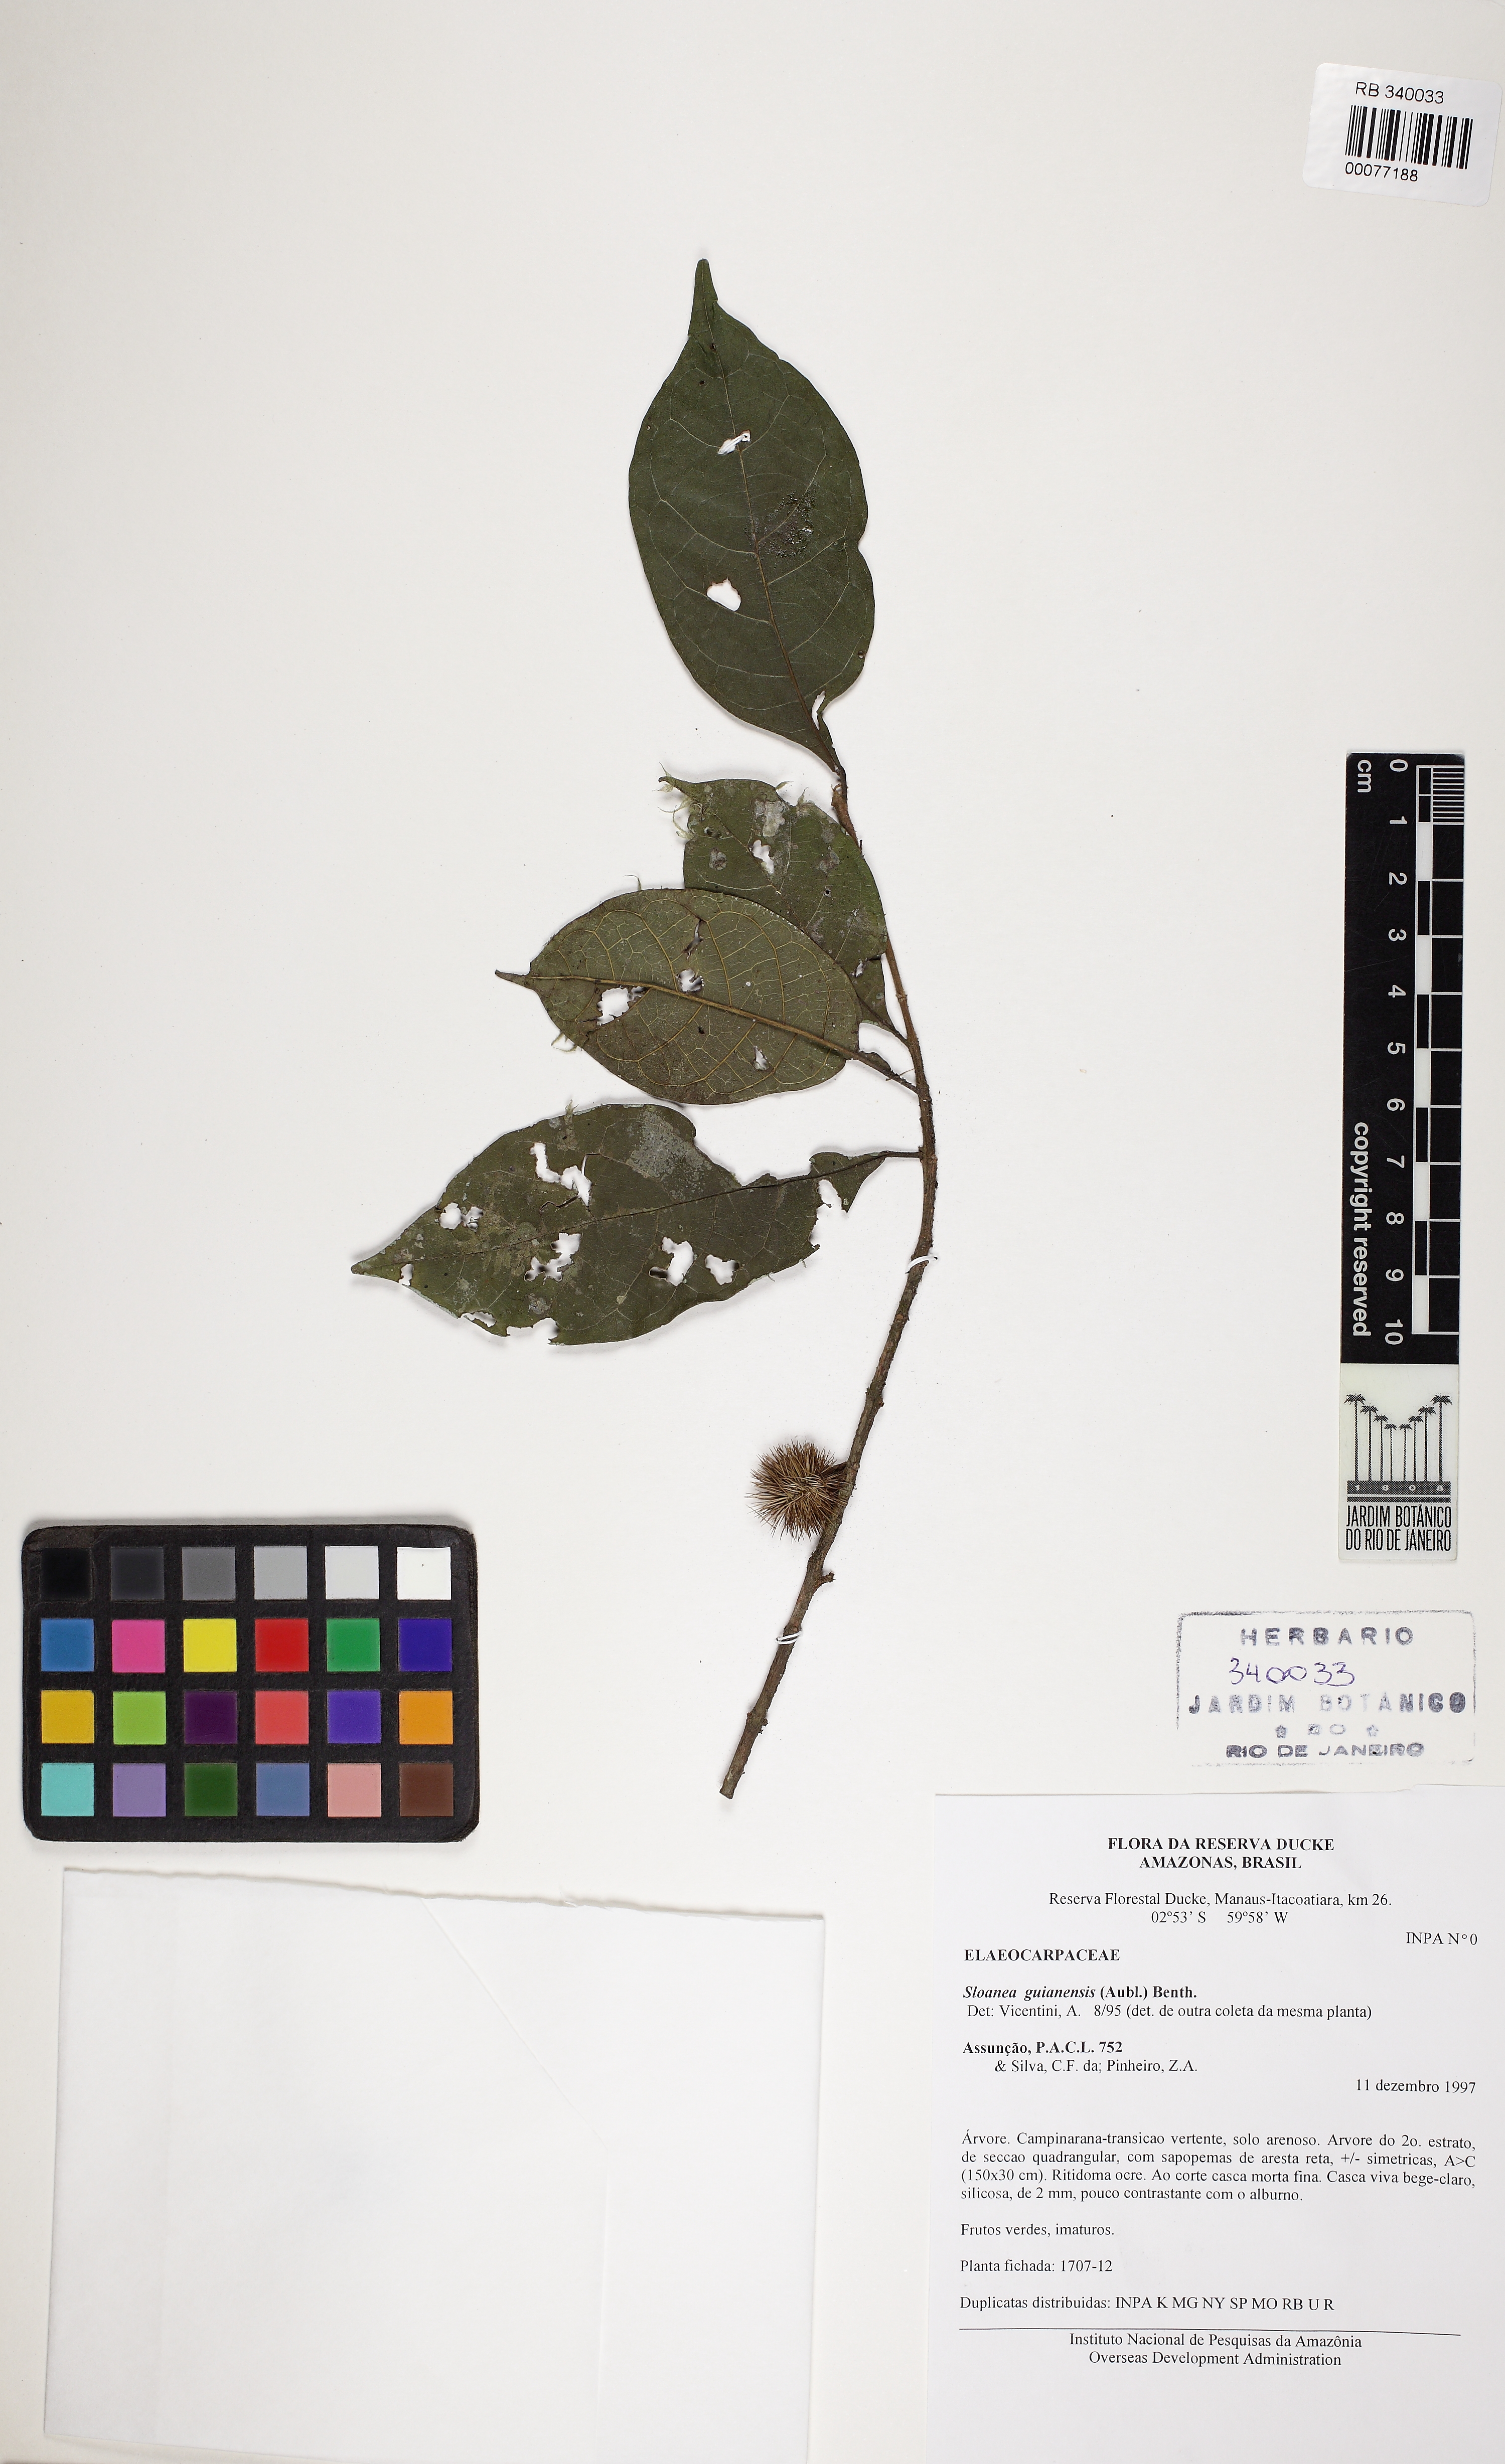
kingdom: Plantae
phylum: Tracheophyta
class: Magnoliopsida
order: Oxalidales
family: Elaeocarpaceae
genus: Sloanea
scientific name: Sloanea guianensis
